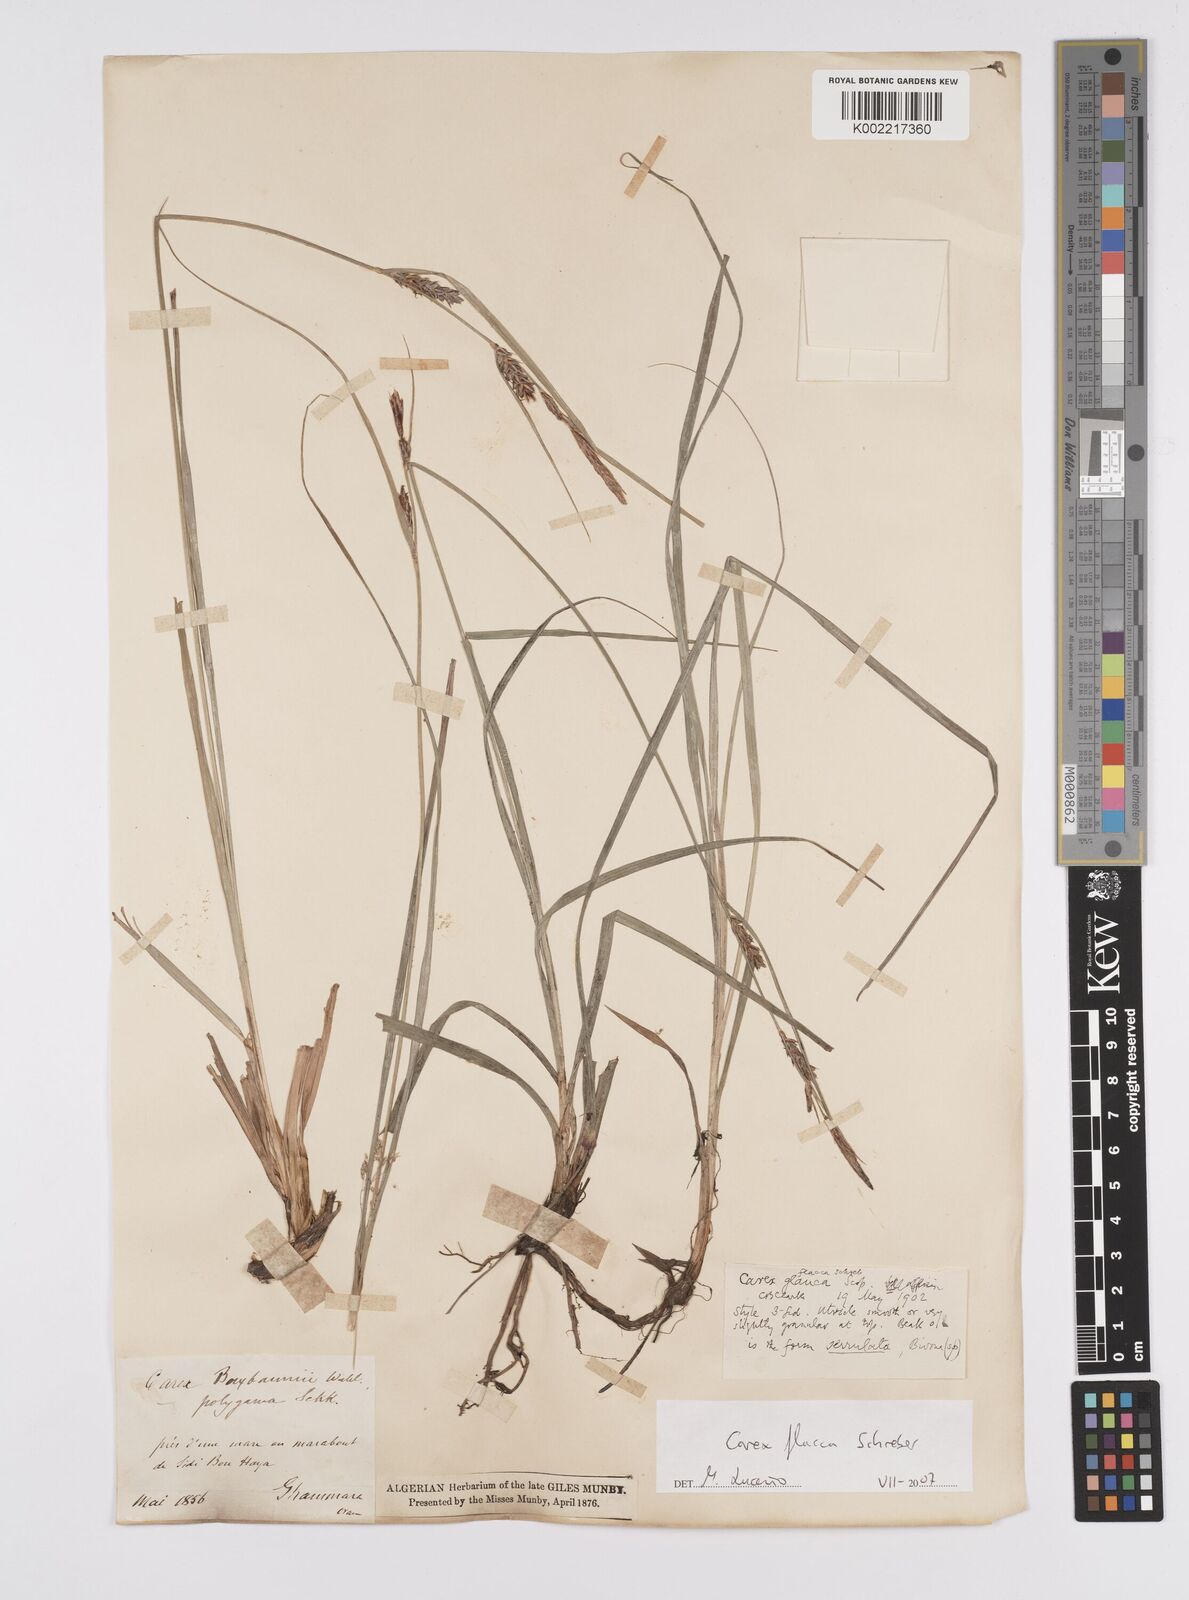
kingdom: Plantae
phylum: Tracheophyta
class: Liliopsida
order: Poales
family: Cyperaceae
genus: Carex
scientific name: Carex flacca
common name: Glaucous sedge
